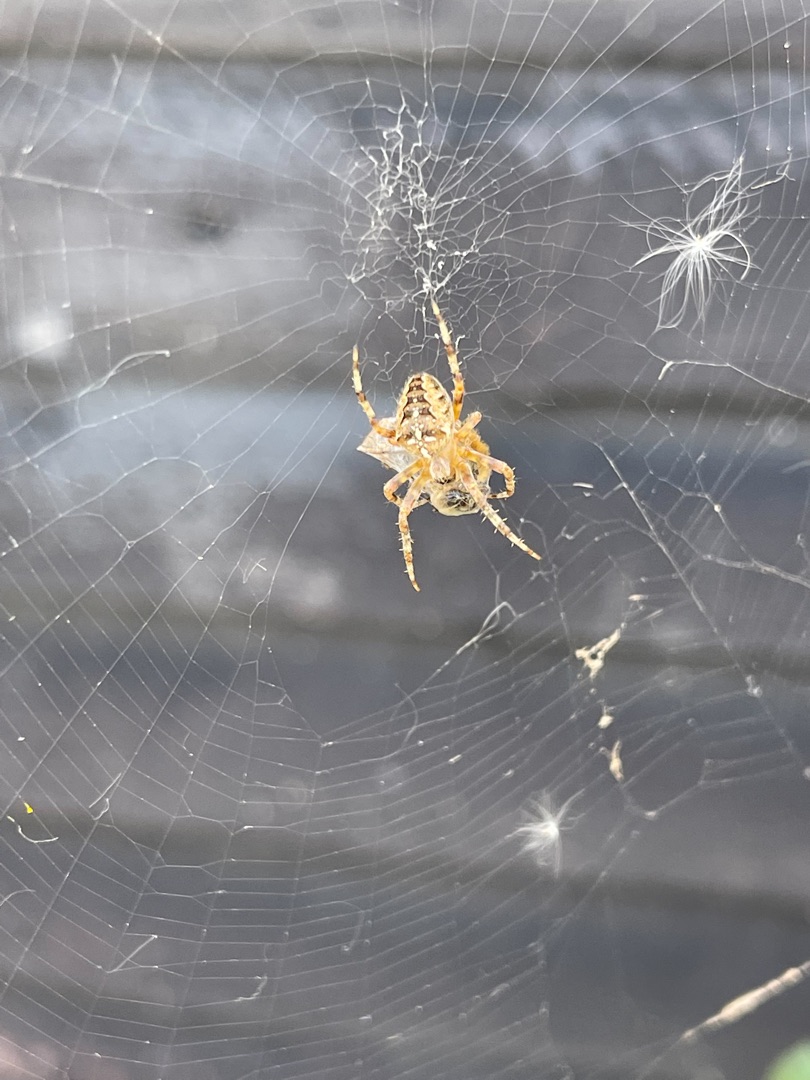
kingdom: Animalia
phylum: Arthropoda
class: Arachnida
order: Araneae
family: Araneidae
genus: Araneus
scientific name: Araneus diadematus
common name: Korsedderkop
